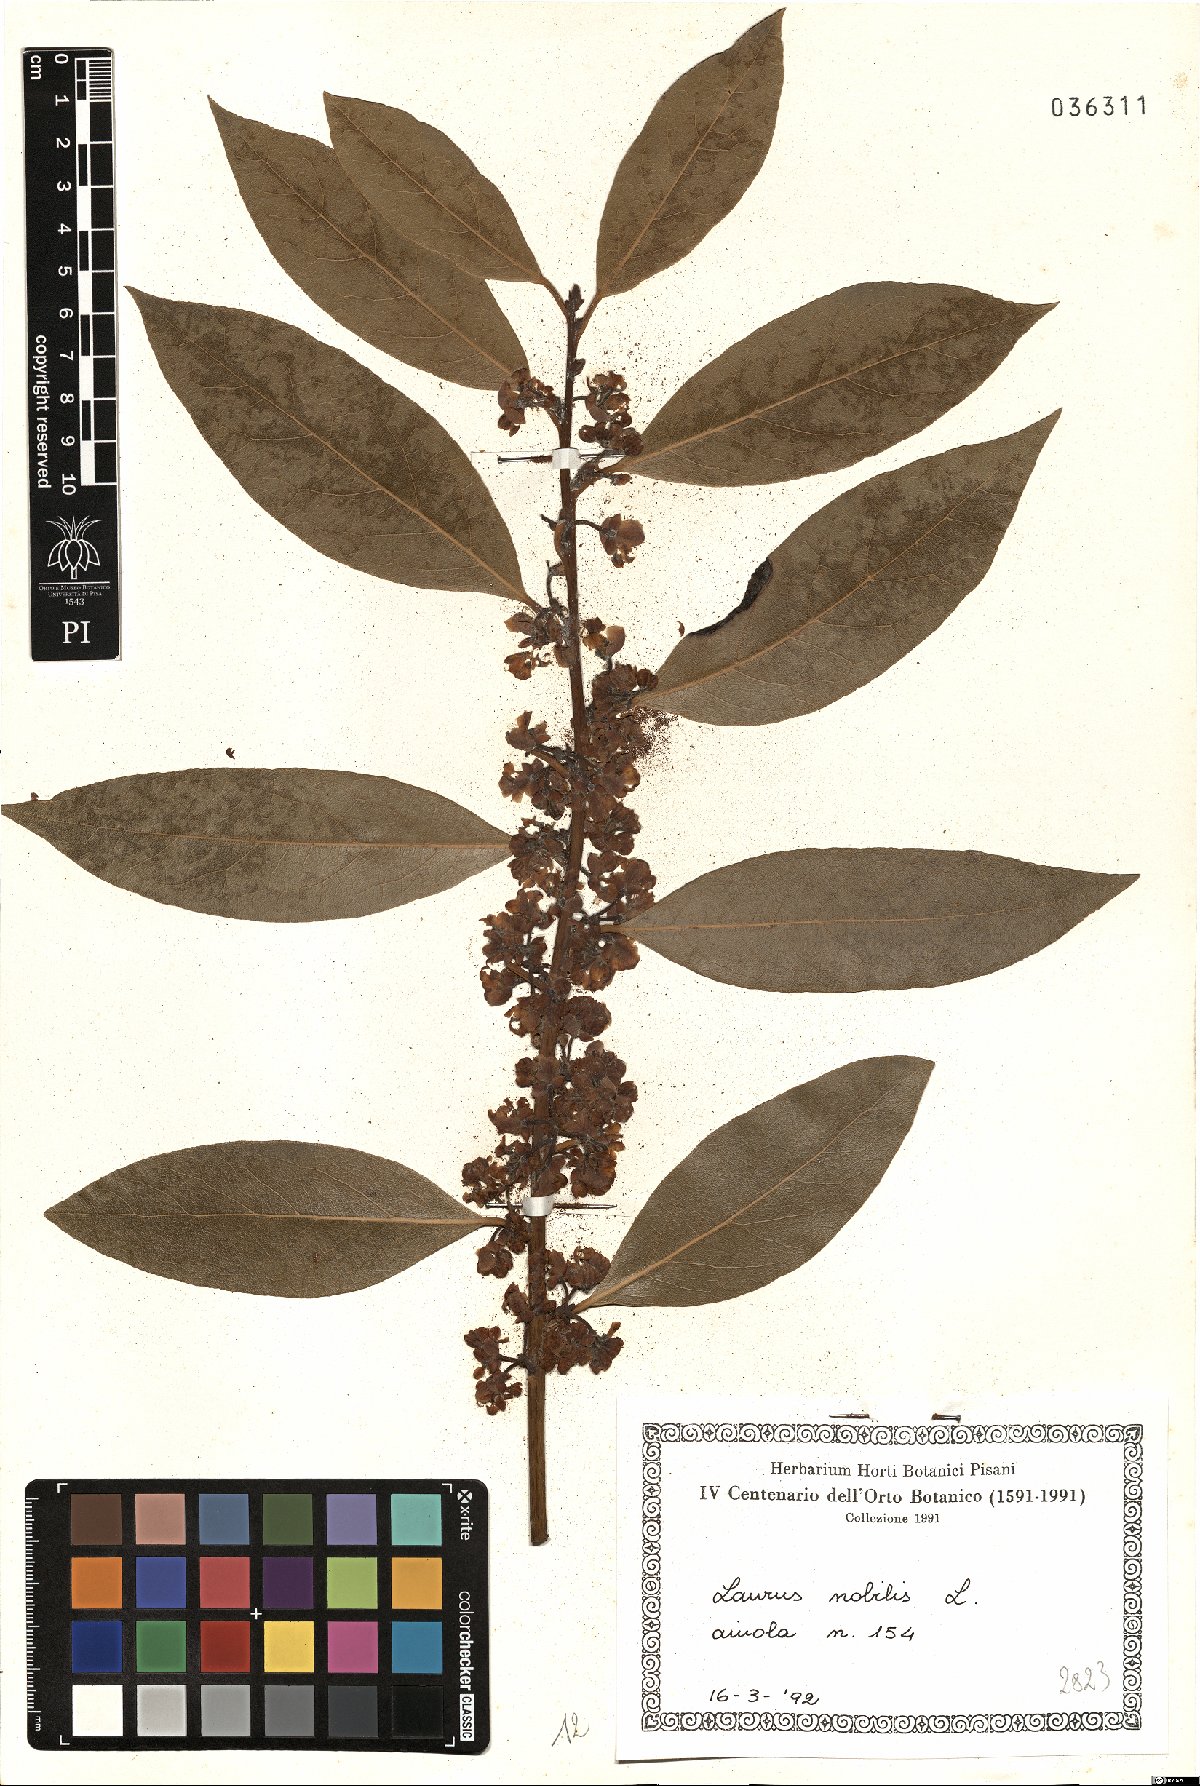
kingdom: Plantae
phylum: Tracheophyta
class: Magnoliopsida
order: Laurales
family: Lauraceae
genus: Laurus
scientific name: Laurus nobilis
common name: Bay
